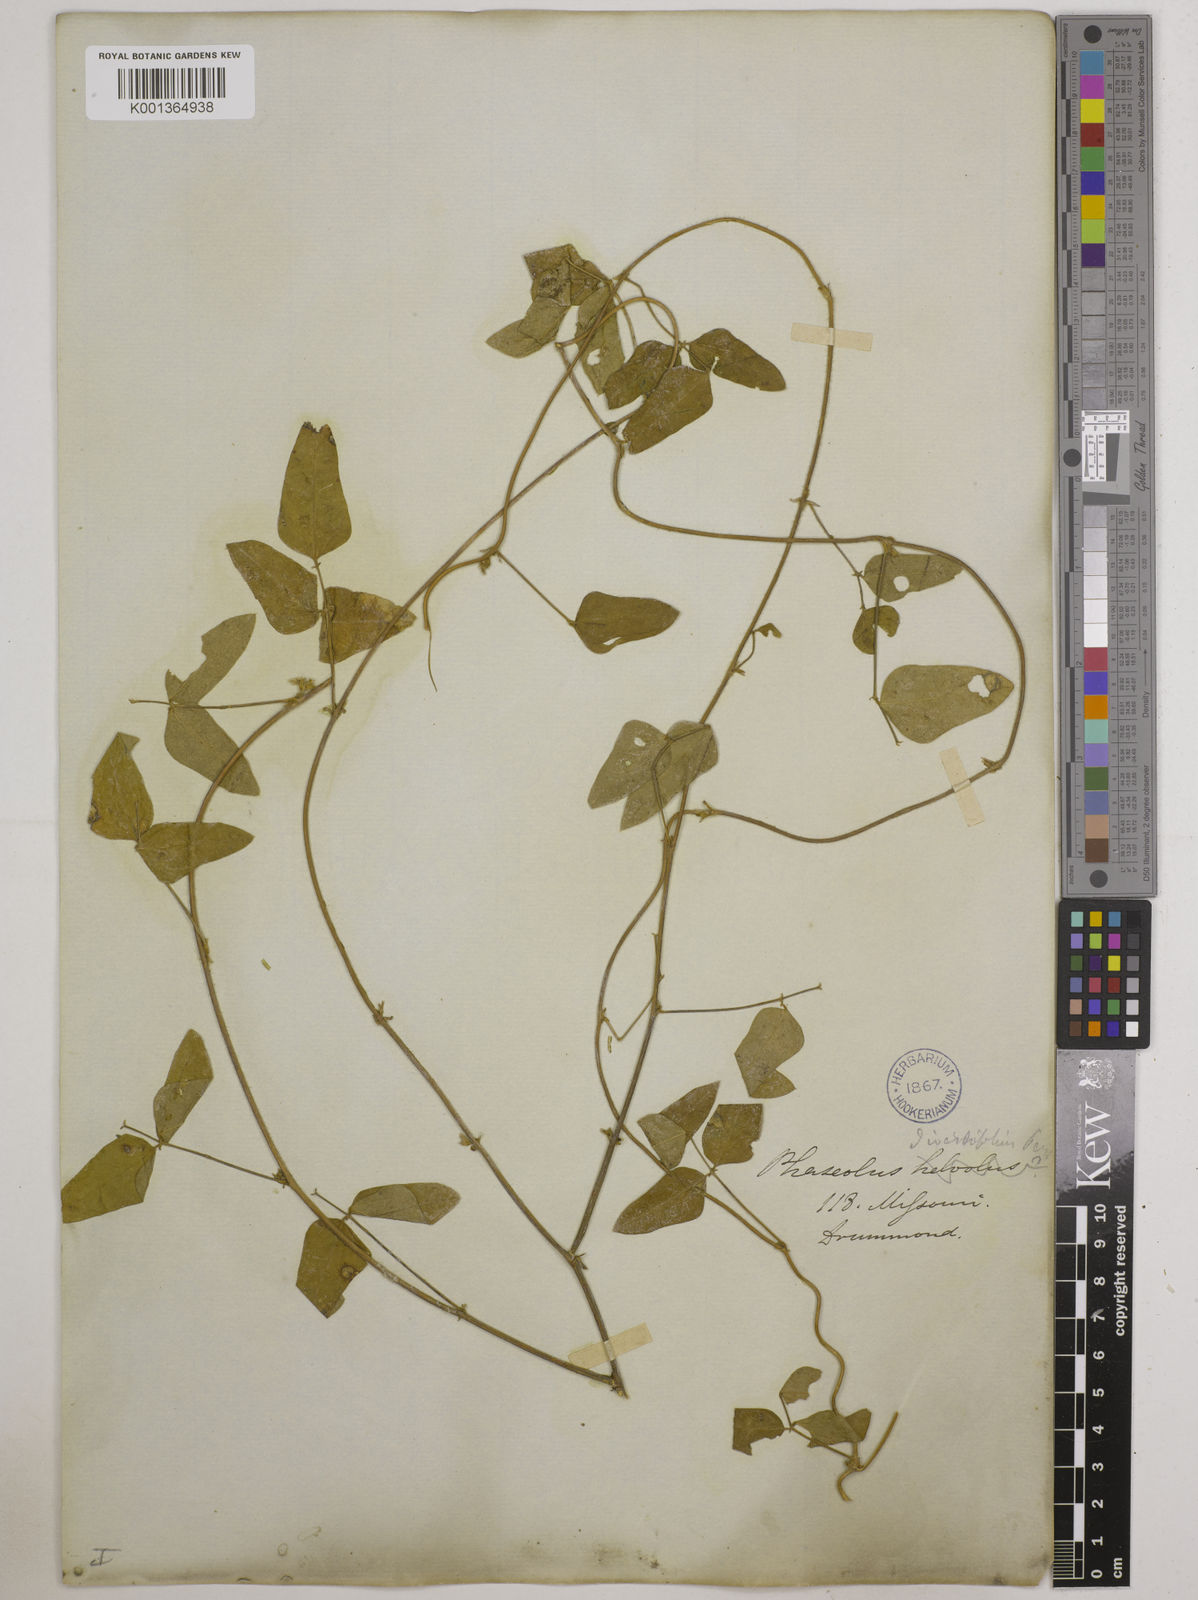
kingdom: Plantae
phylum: Tracheophyta
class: Magnoliopsida
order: Fabales
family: Fabaceae
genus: Strophostyles
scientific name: Strophostyles
